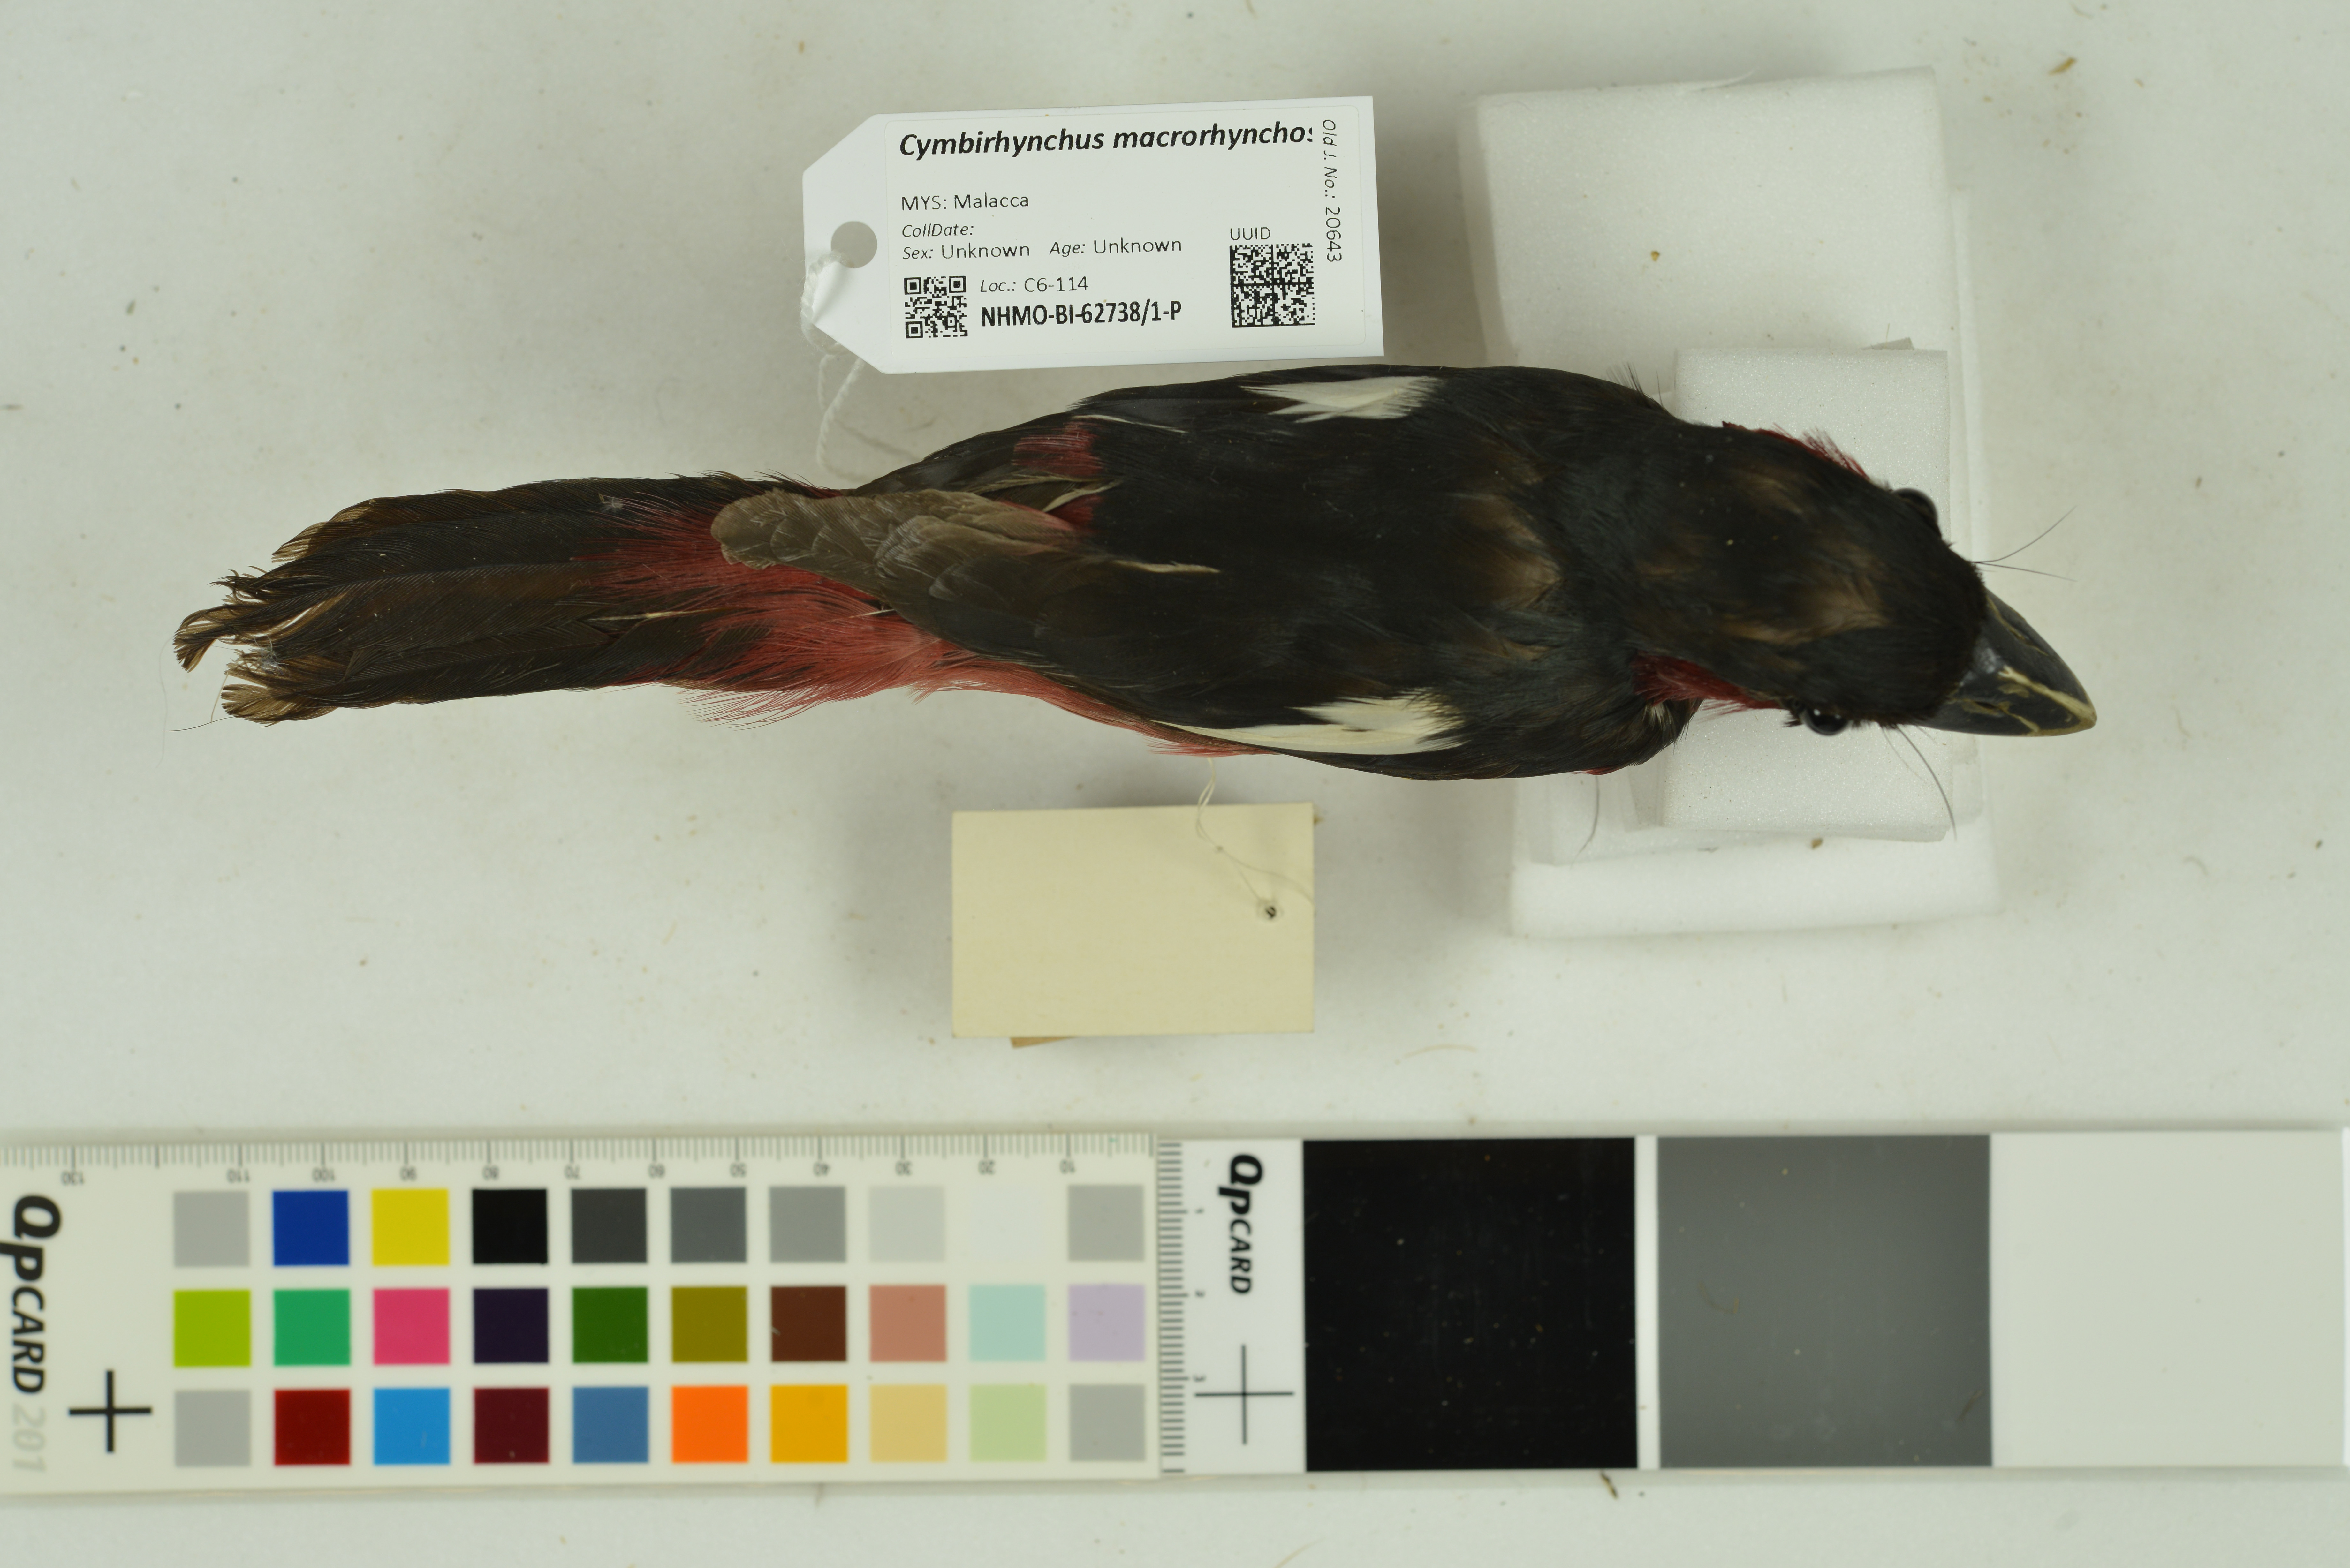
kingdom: Animalia
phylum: Chordata
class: Aves
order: Passeriformes
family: Eurylaimidae
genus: Cymbirhynchus
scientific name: Cymbirhynchus macrorhynchos
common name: Black-and-red broadbill
